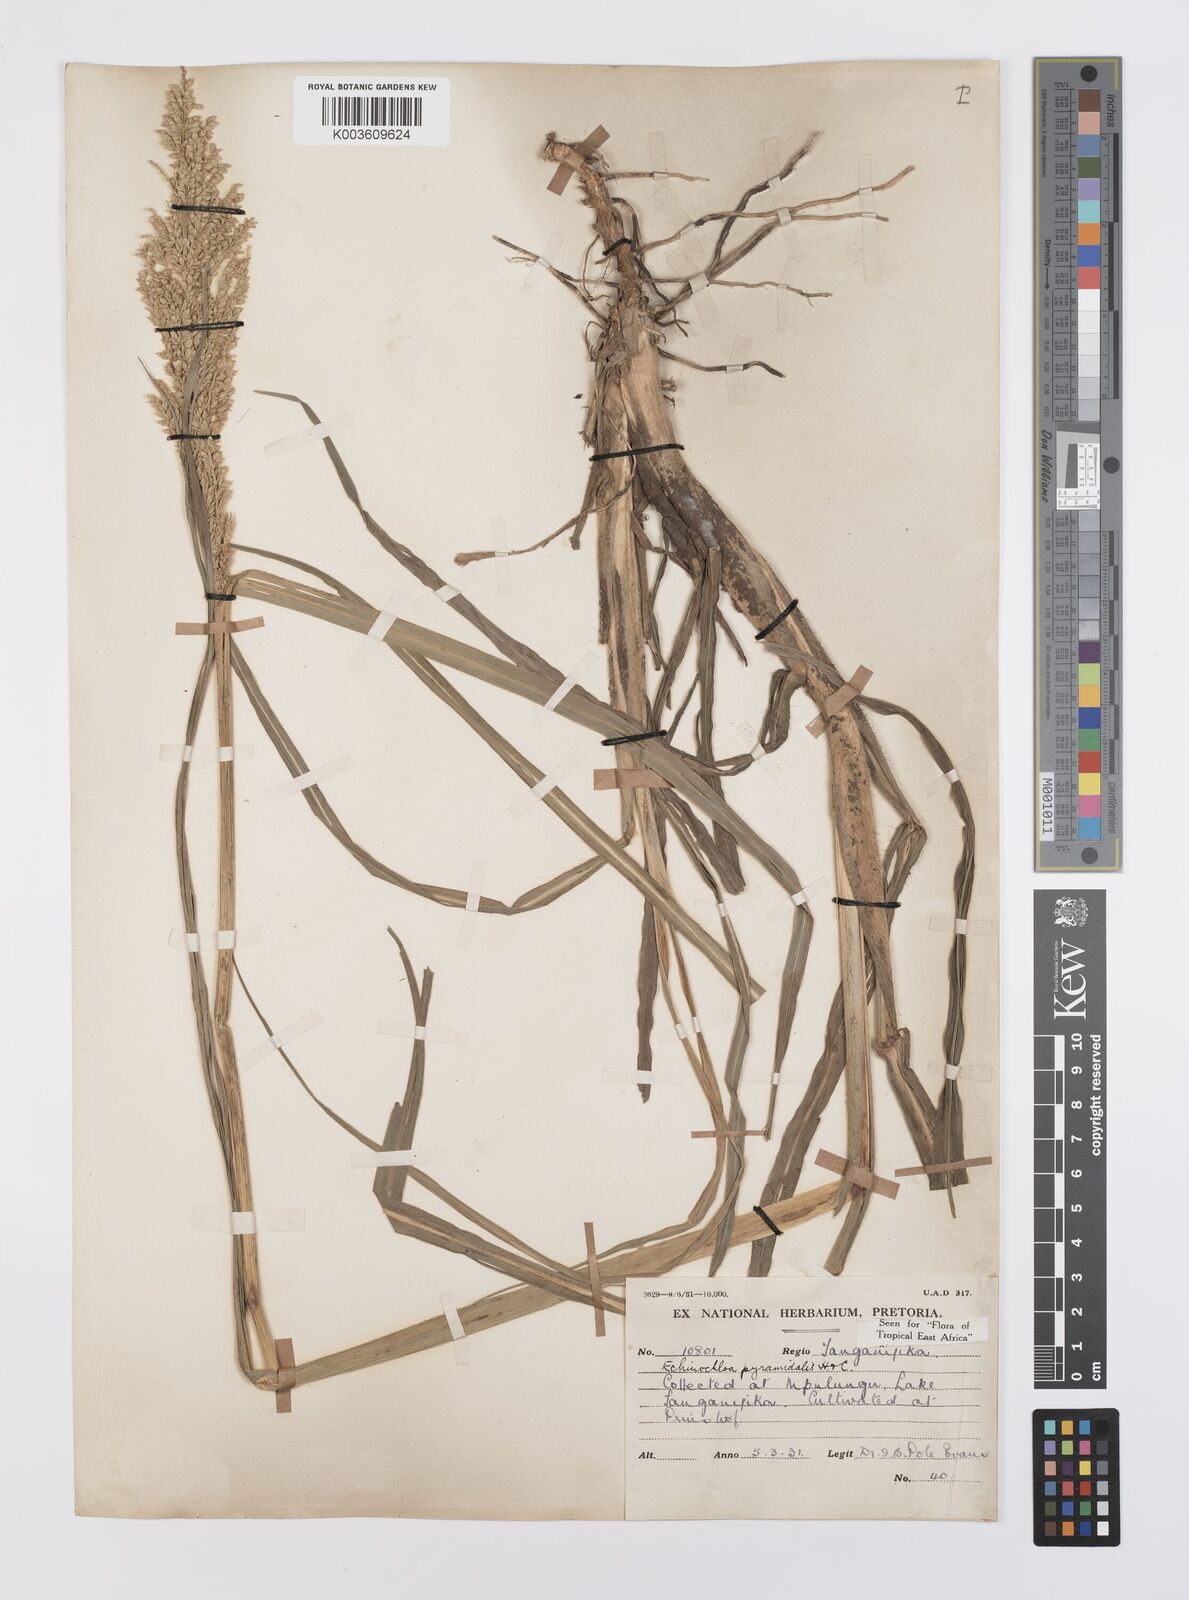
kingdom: Plantae
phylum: Tracheophyta
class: Liliopsida
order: Poales
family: Poaceae
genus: Echinochloa
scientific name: Echinochloa pyramidalis
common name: Antelope grass
